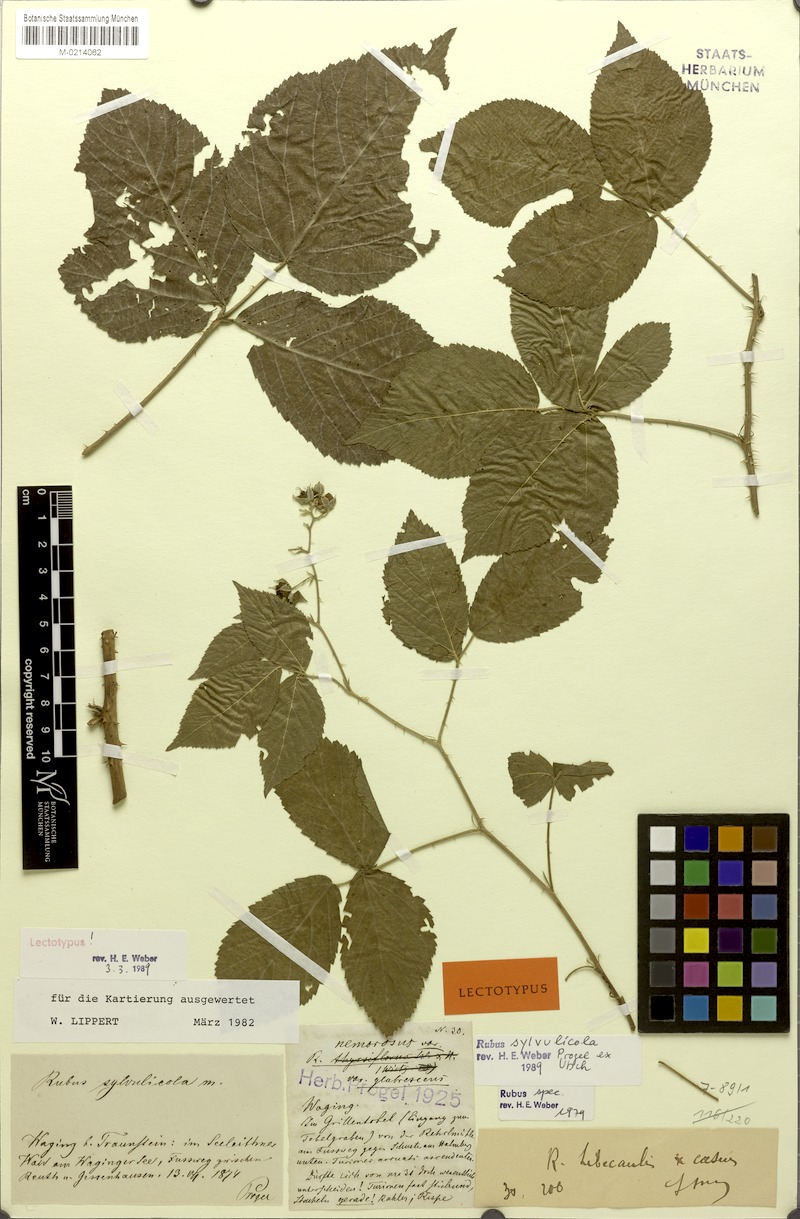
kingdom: Plantae
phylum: Tracheophyta
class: Magnoliopsida
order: Rosales
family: Rosaceae
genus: Rubus
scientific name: Rubus sylvulicola
